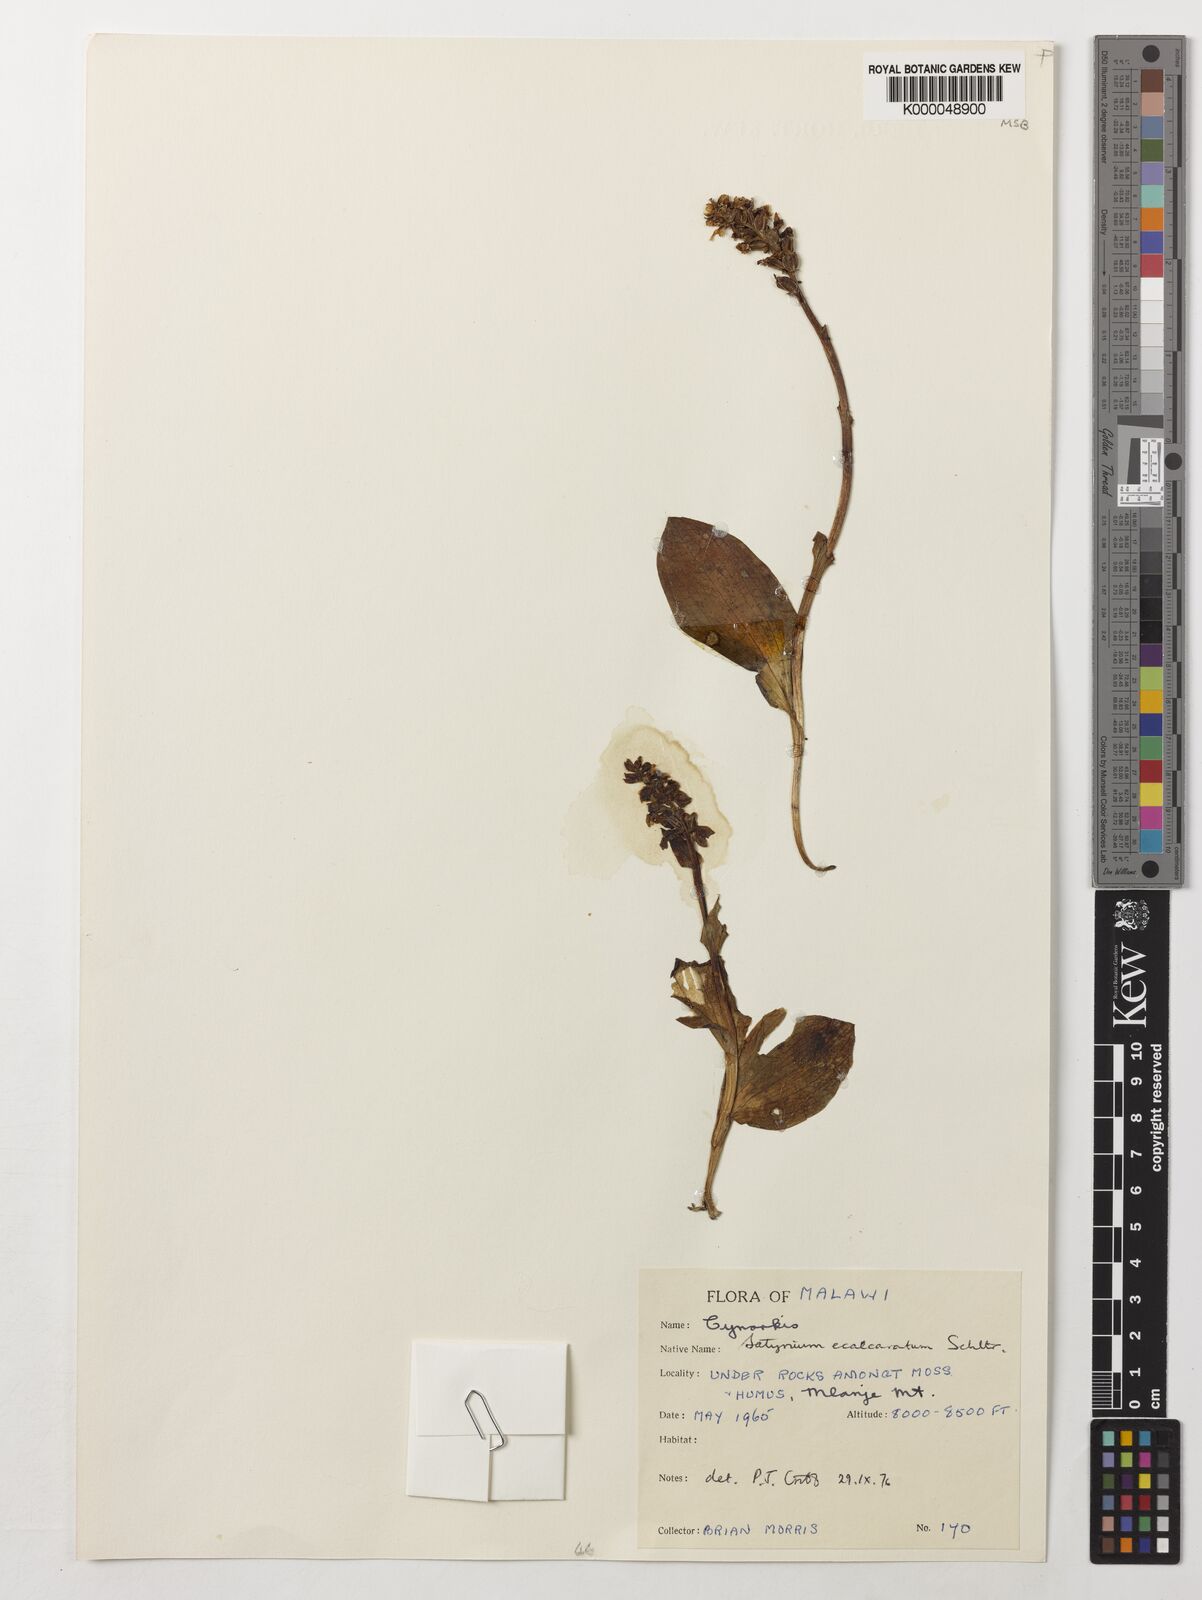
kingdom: Plantae
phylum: Tracheophyta
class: Liliopsida
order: Asparagales
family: Orchidaceae
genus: Satyrium
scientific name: Satyrium ecalcaratum
